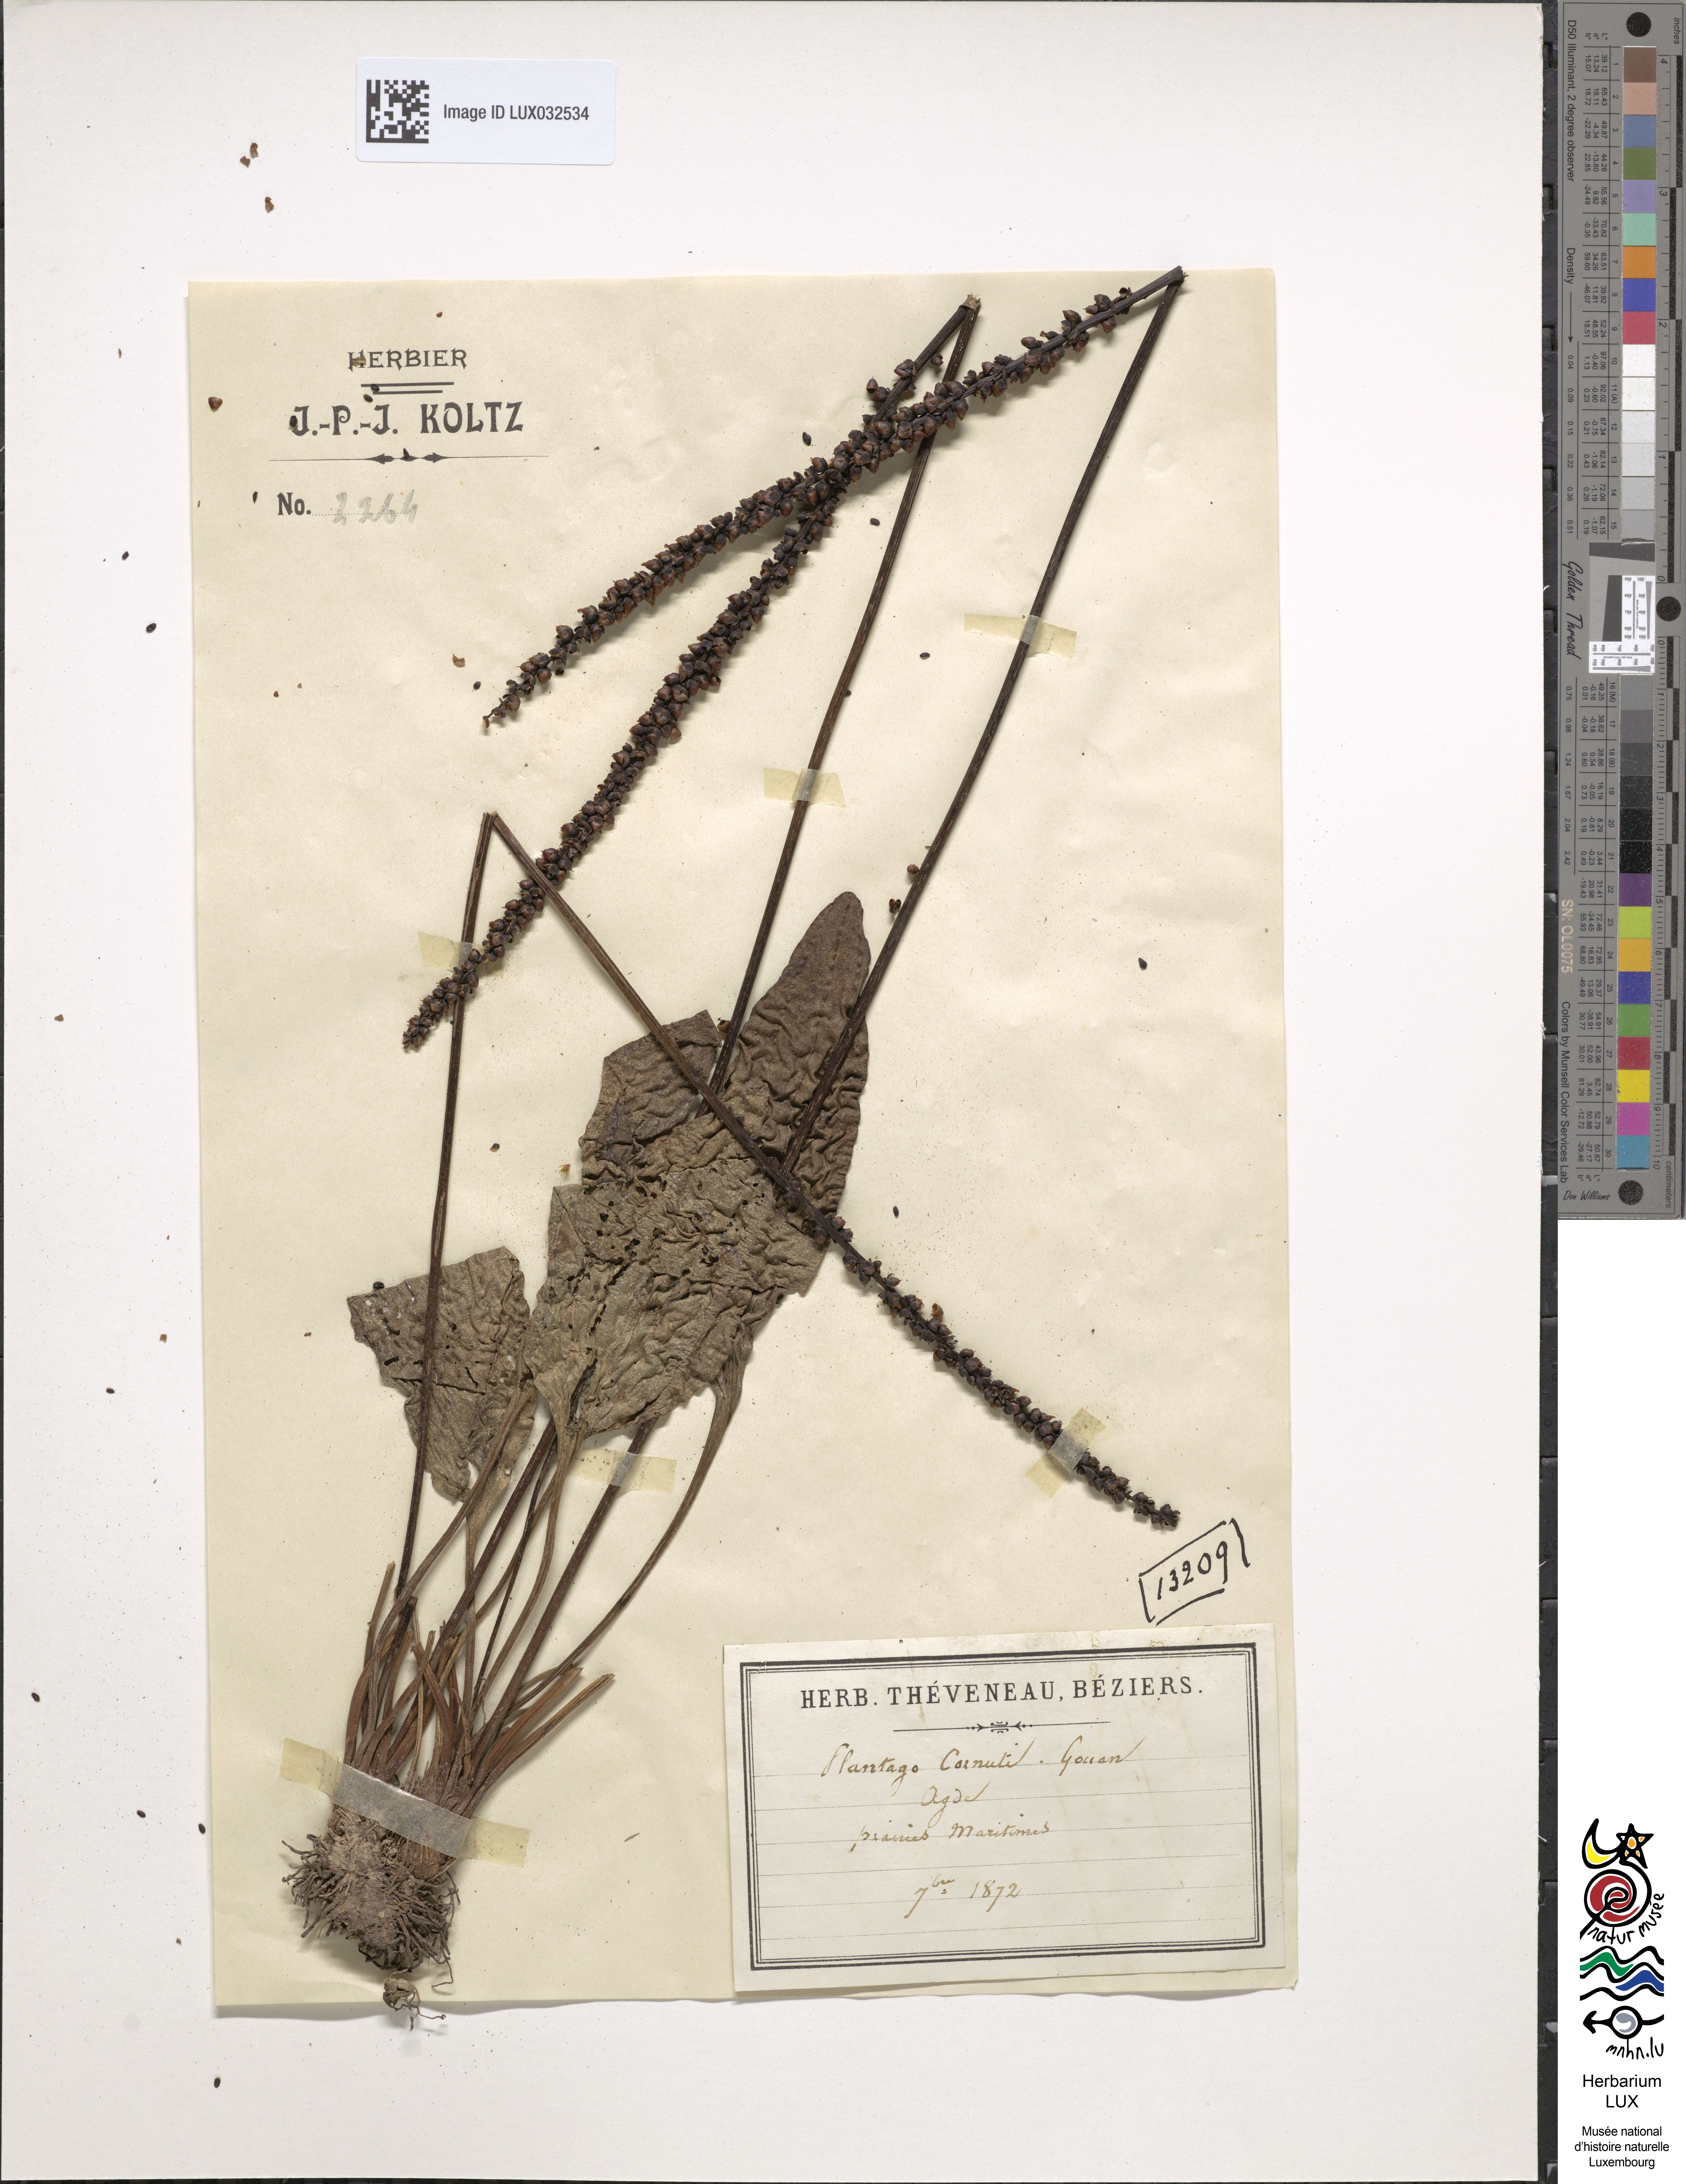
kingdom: Plantae
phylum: Tracheophyta
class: Magnoliopsida
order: Lamiales
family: Plantaginaceae
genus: Plantago
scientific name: Plantago cornuti
